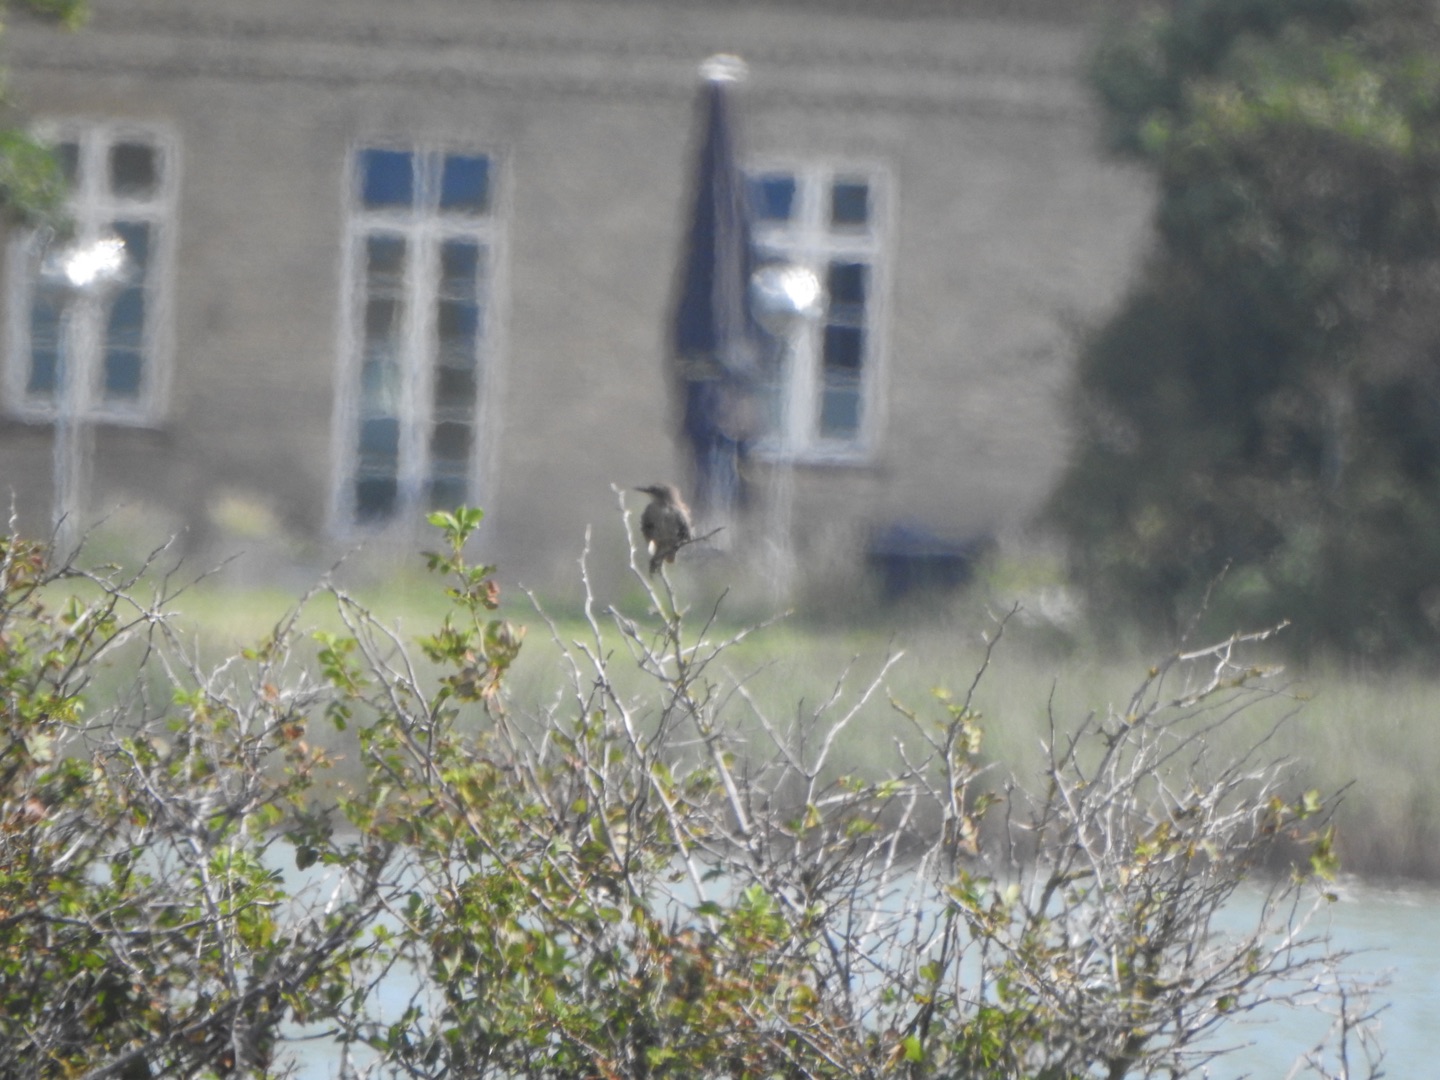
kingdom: Animalia
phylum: Chordata
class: Aves
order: Passeriformes
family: Sturnidae
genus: Sturnus
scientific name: Sturnus vulgaris
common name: Stær
